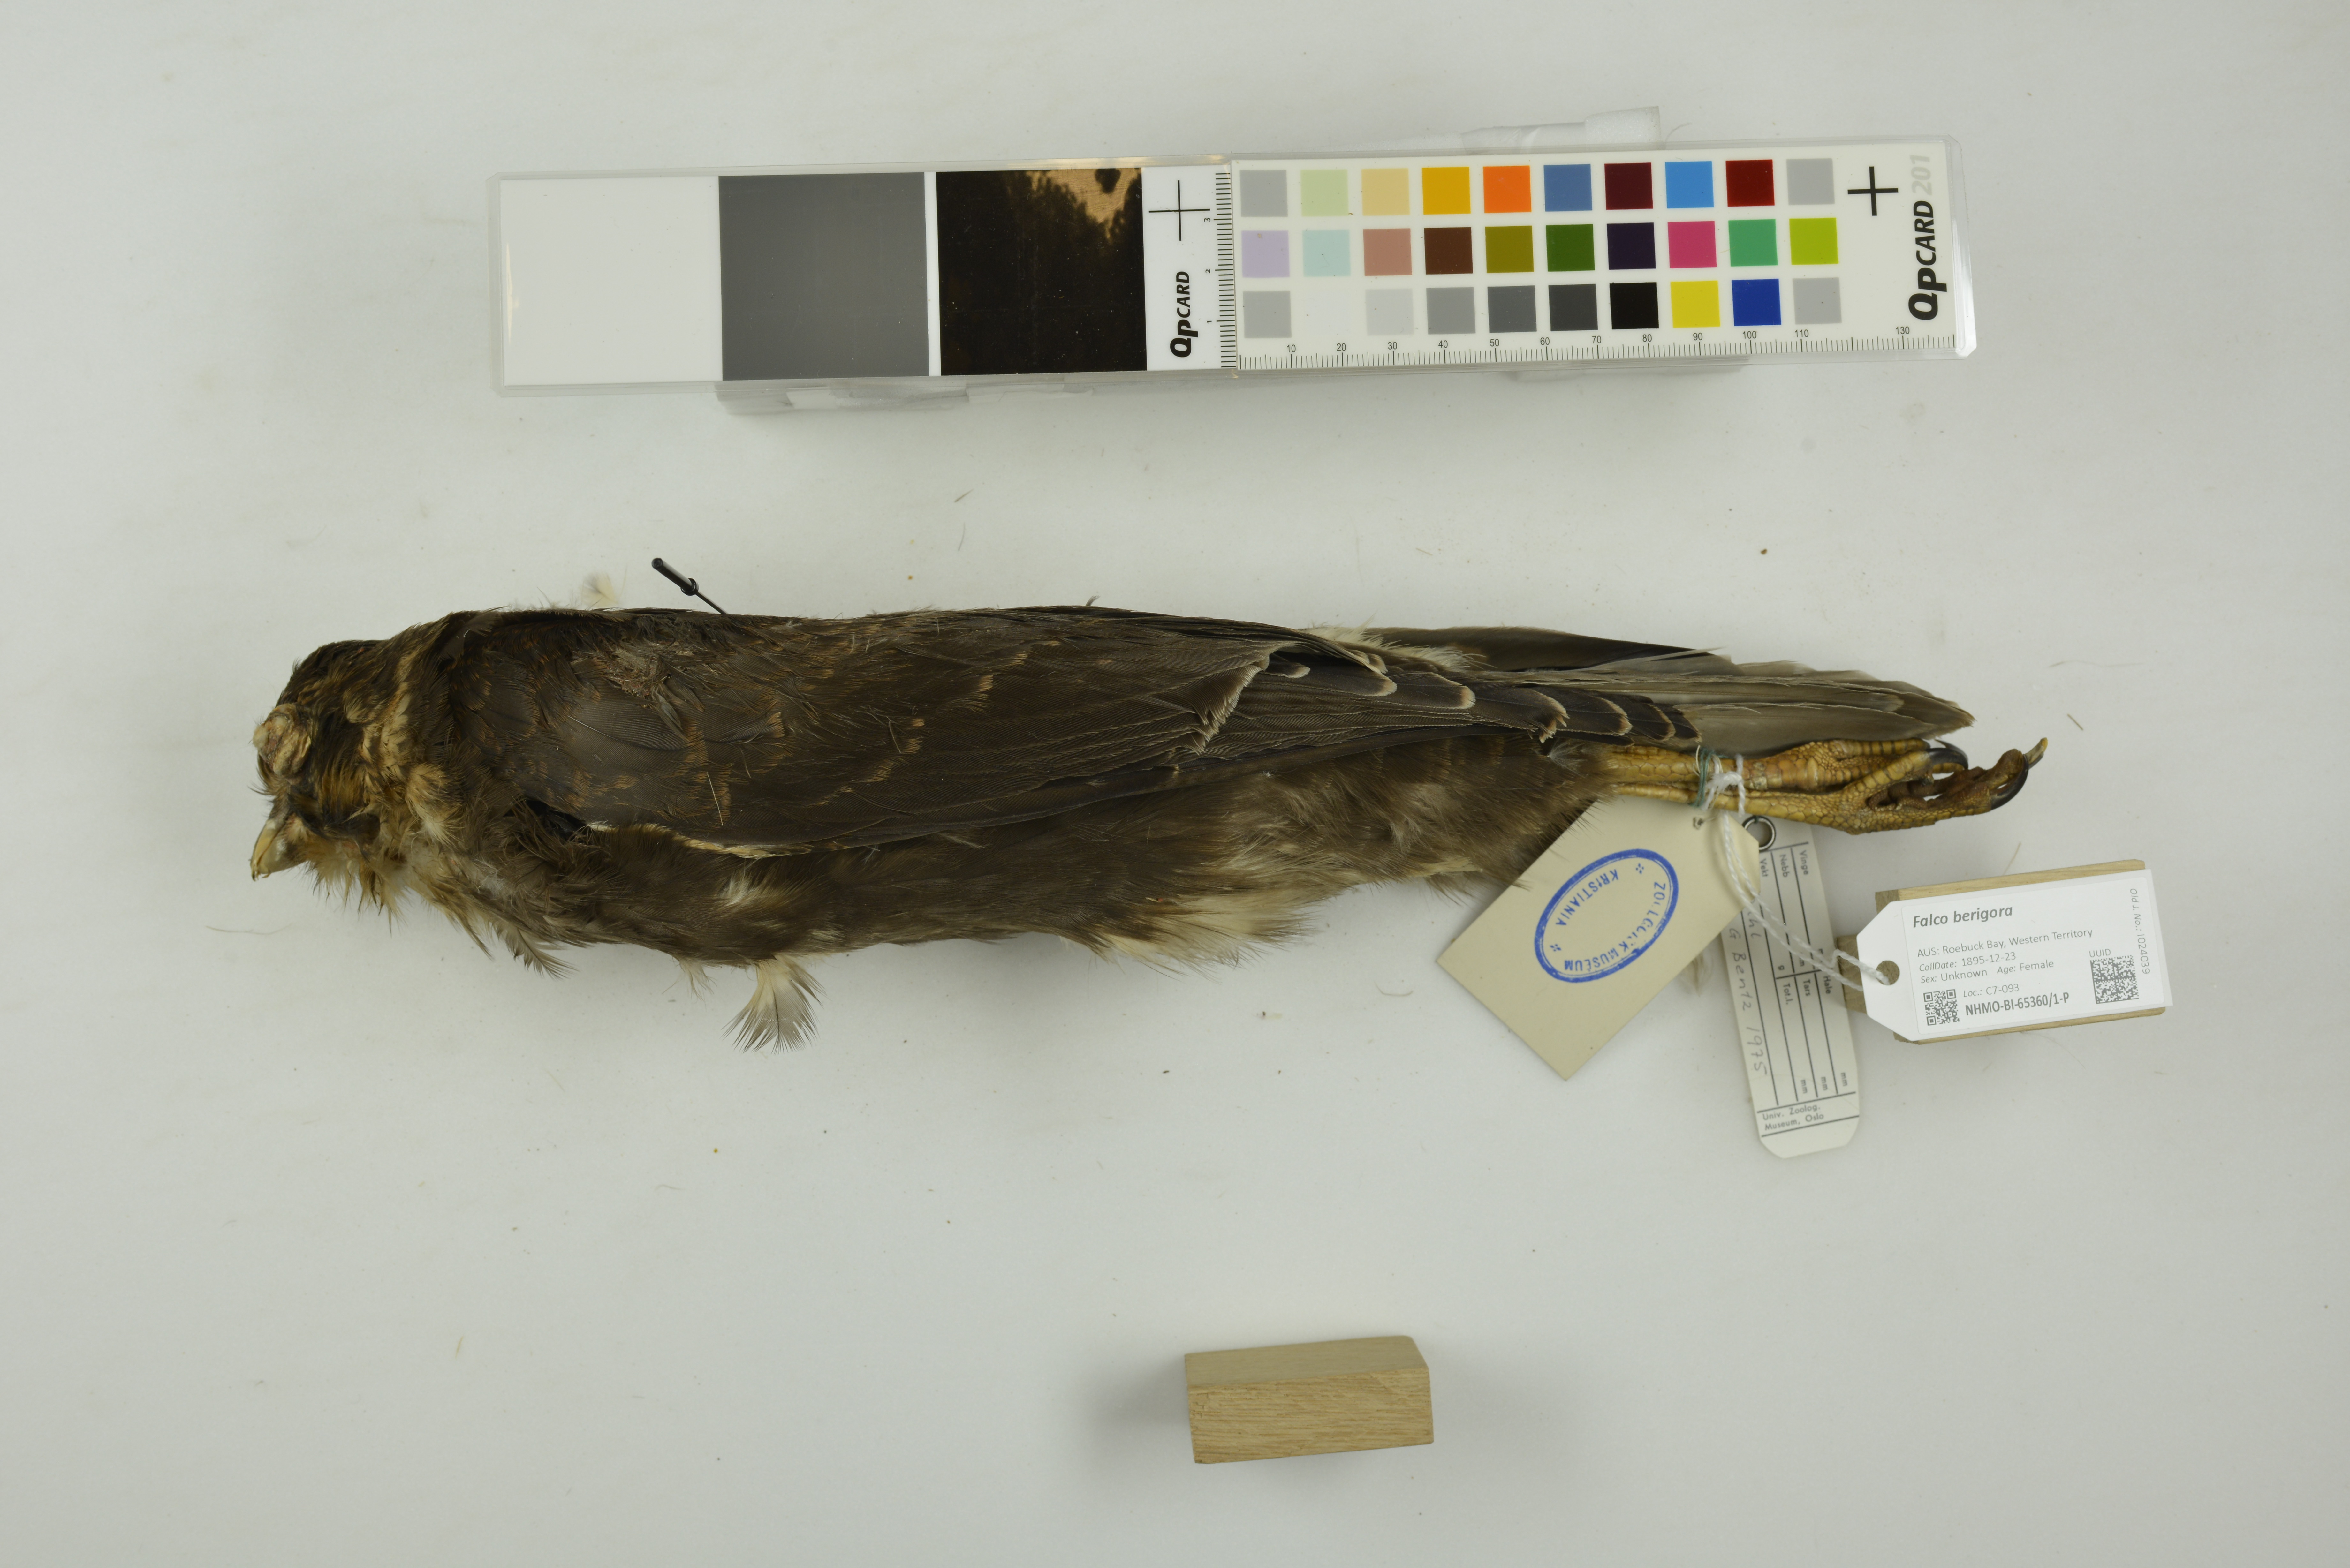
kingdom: Animalia
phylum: Chordata
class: Aves
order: Falconiformes
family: Falconidae
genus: Falco
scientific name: Falco berigora
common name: Brown falcon
